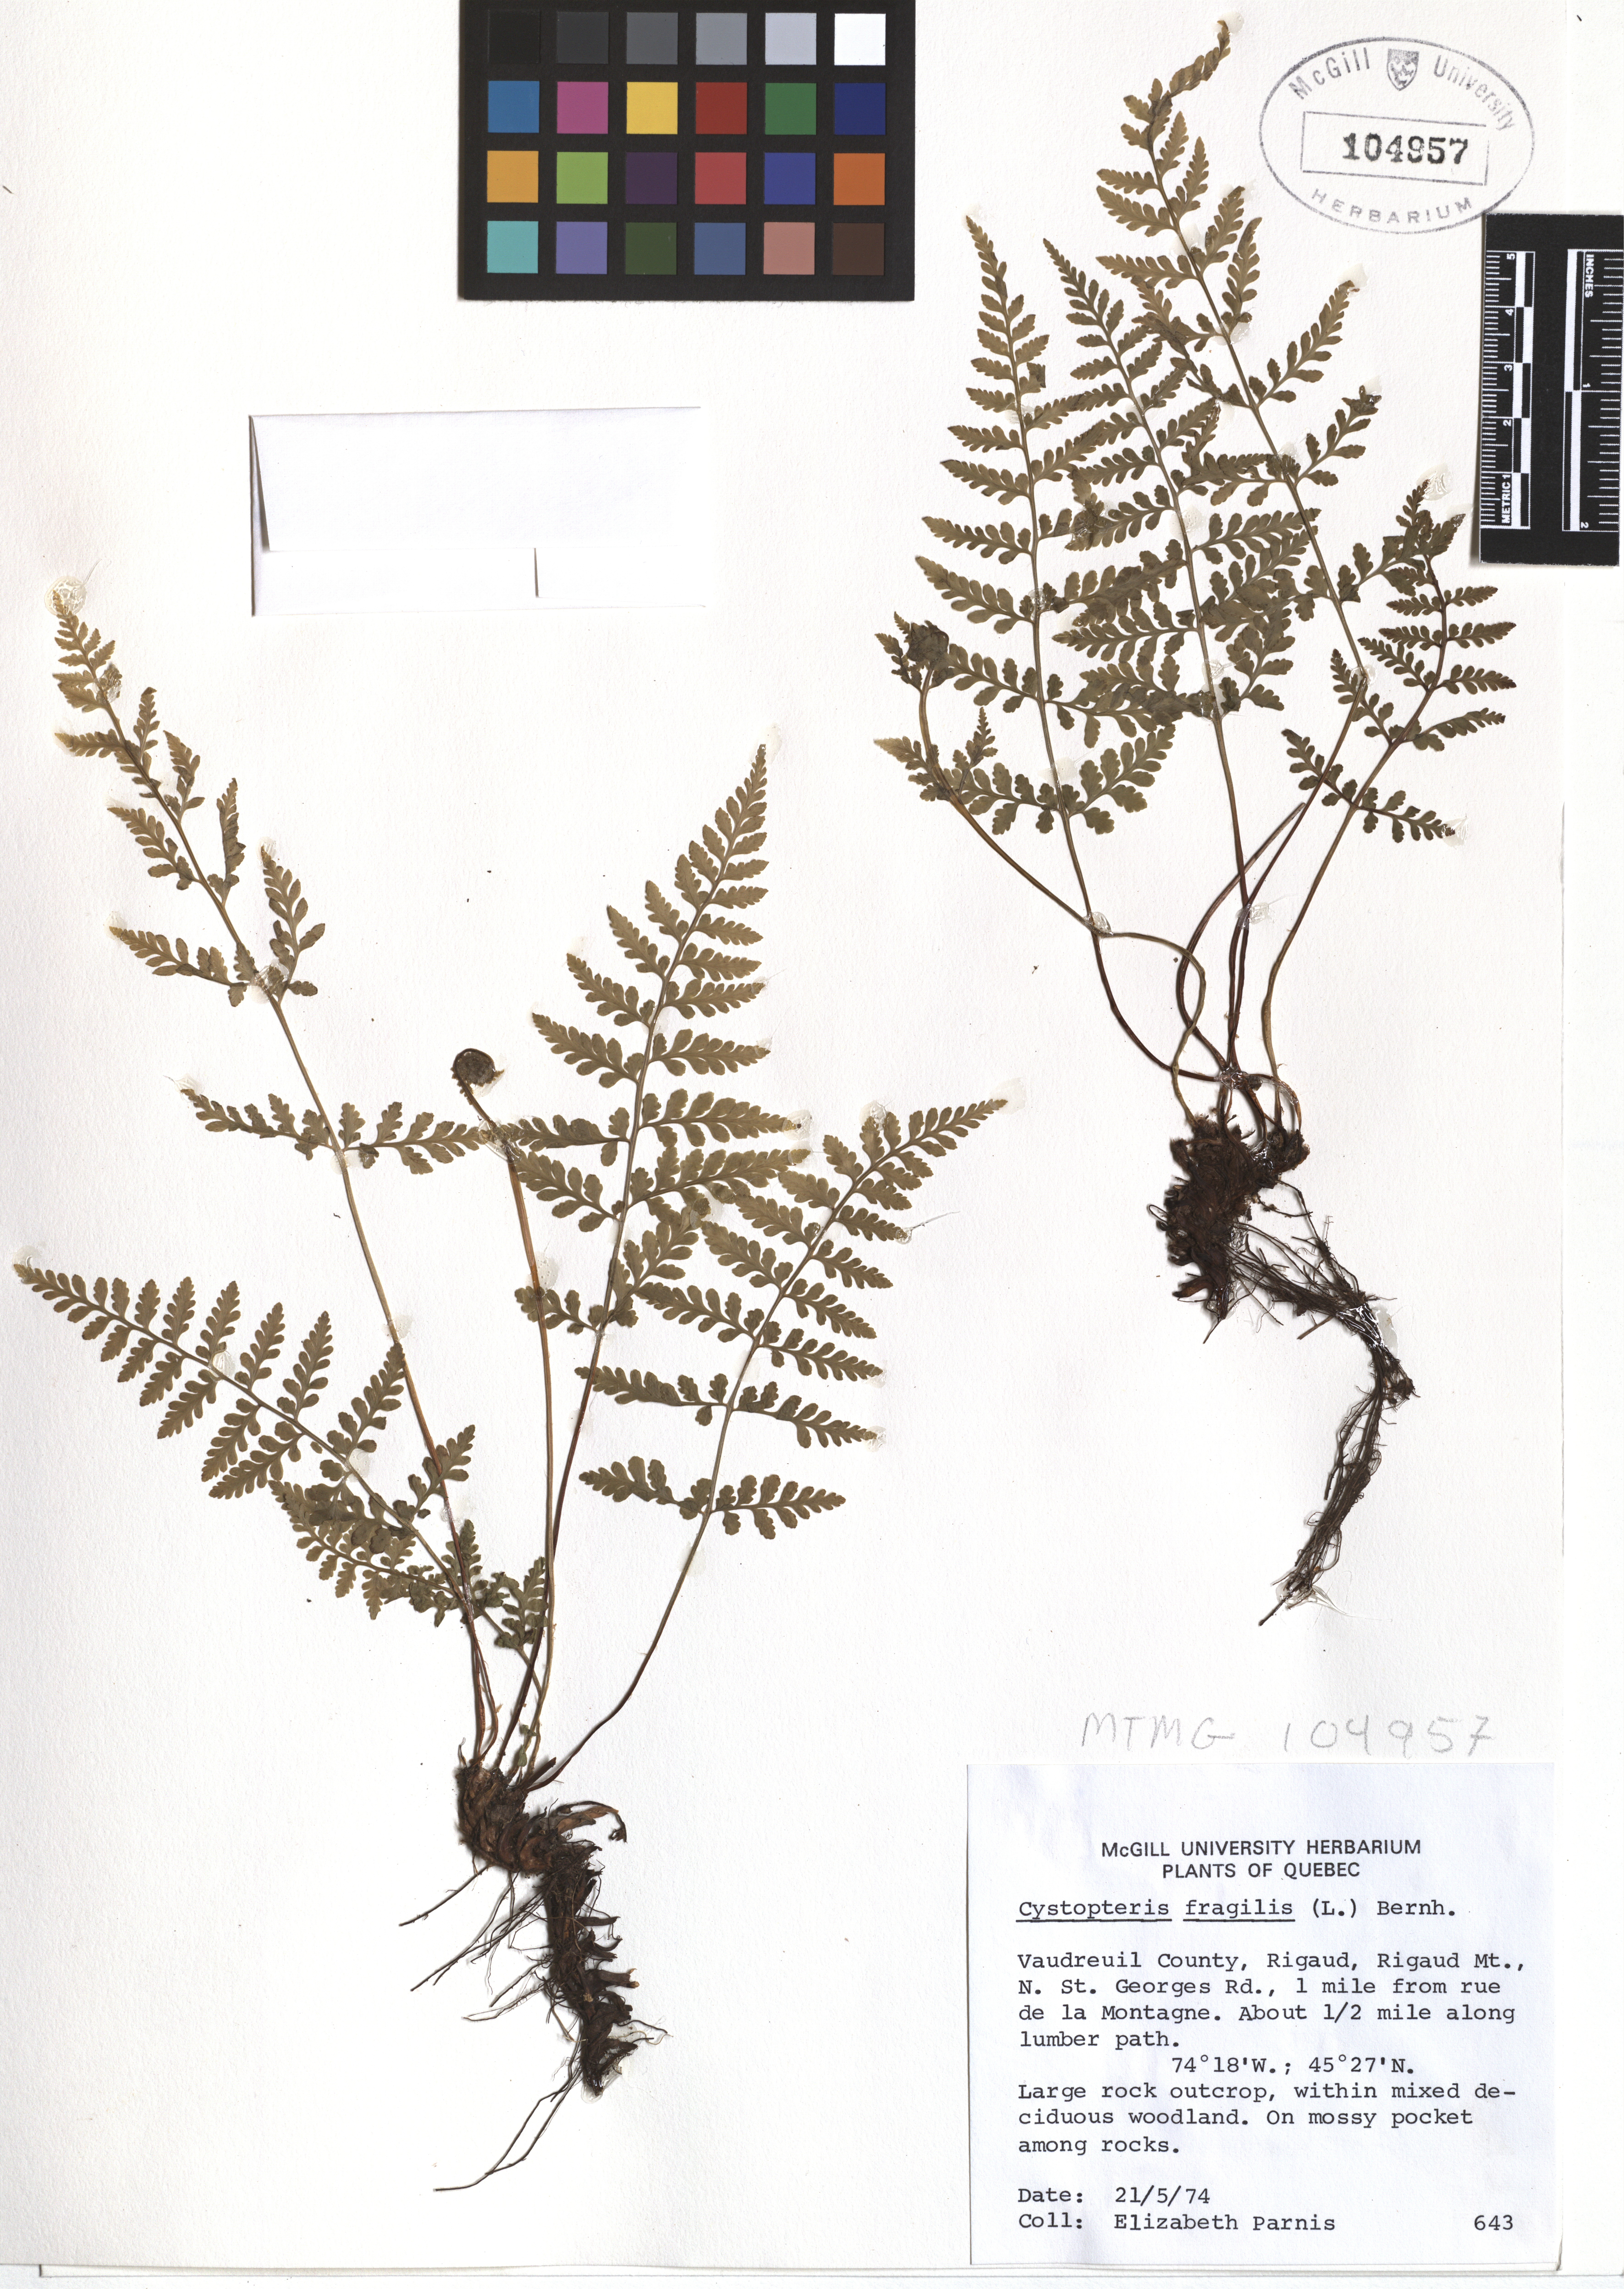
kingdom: Plantae
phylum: Tracheophyta
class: Polypodiopsida
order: Polypodiales
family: Cystopteridaceae
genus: Cystopteris
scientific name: Cystopteris fragilis
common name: Brittle bladder fern
